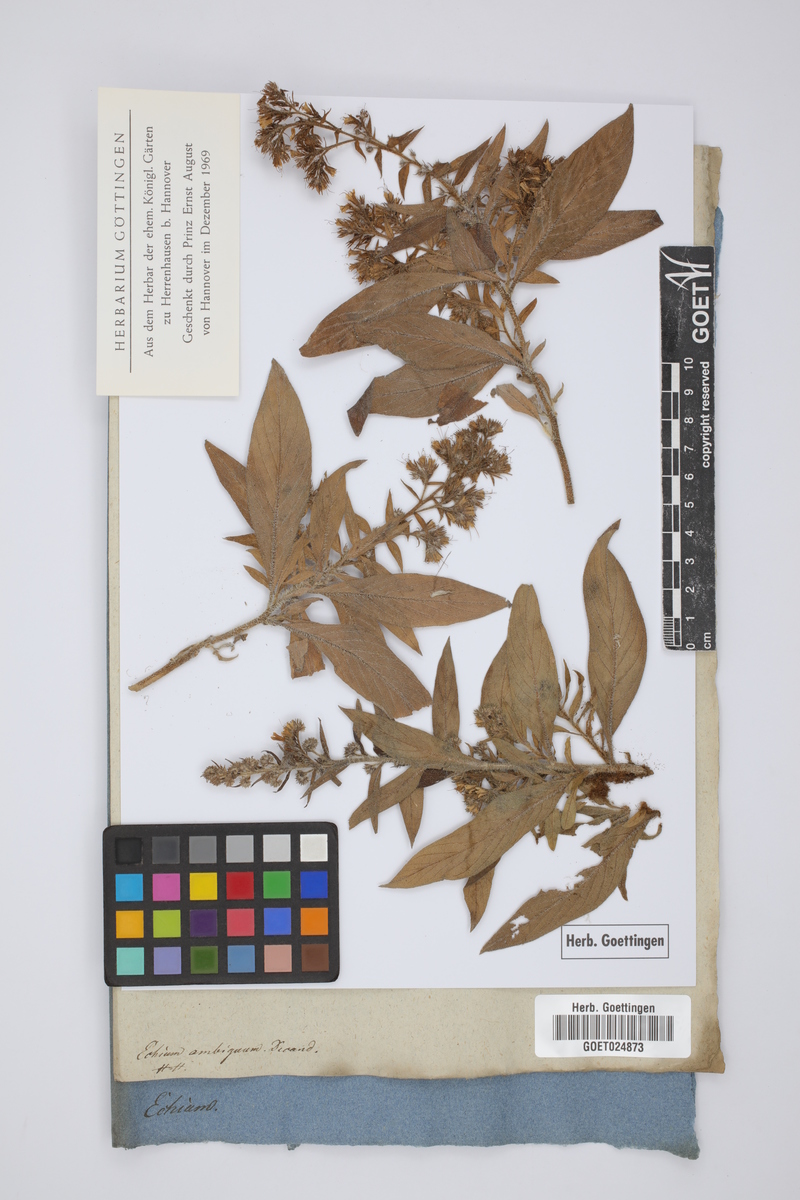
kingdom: Plantae
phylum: Tracheophyta
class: Magnoliopsida
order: Boraginales
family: Boraginaceae
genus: Echium
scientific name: Echium strictum
